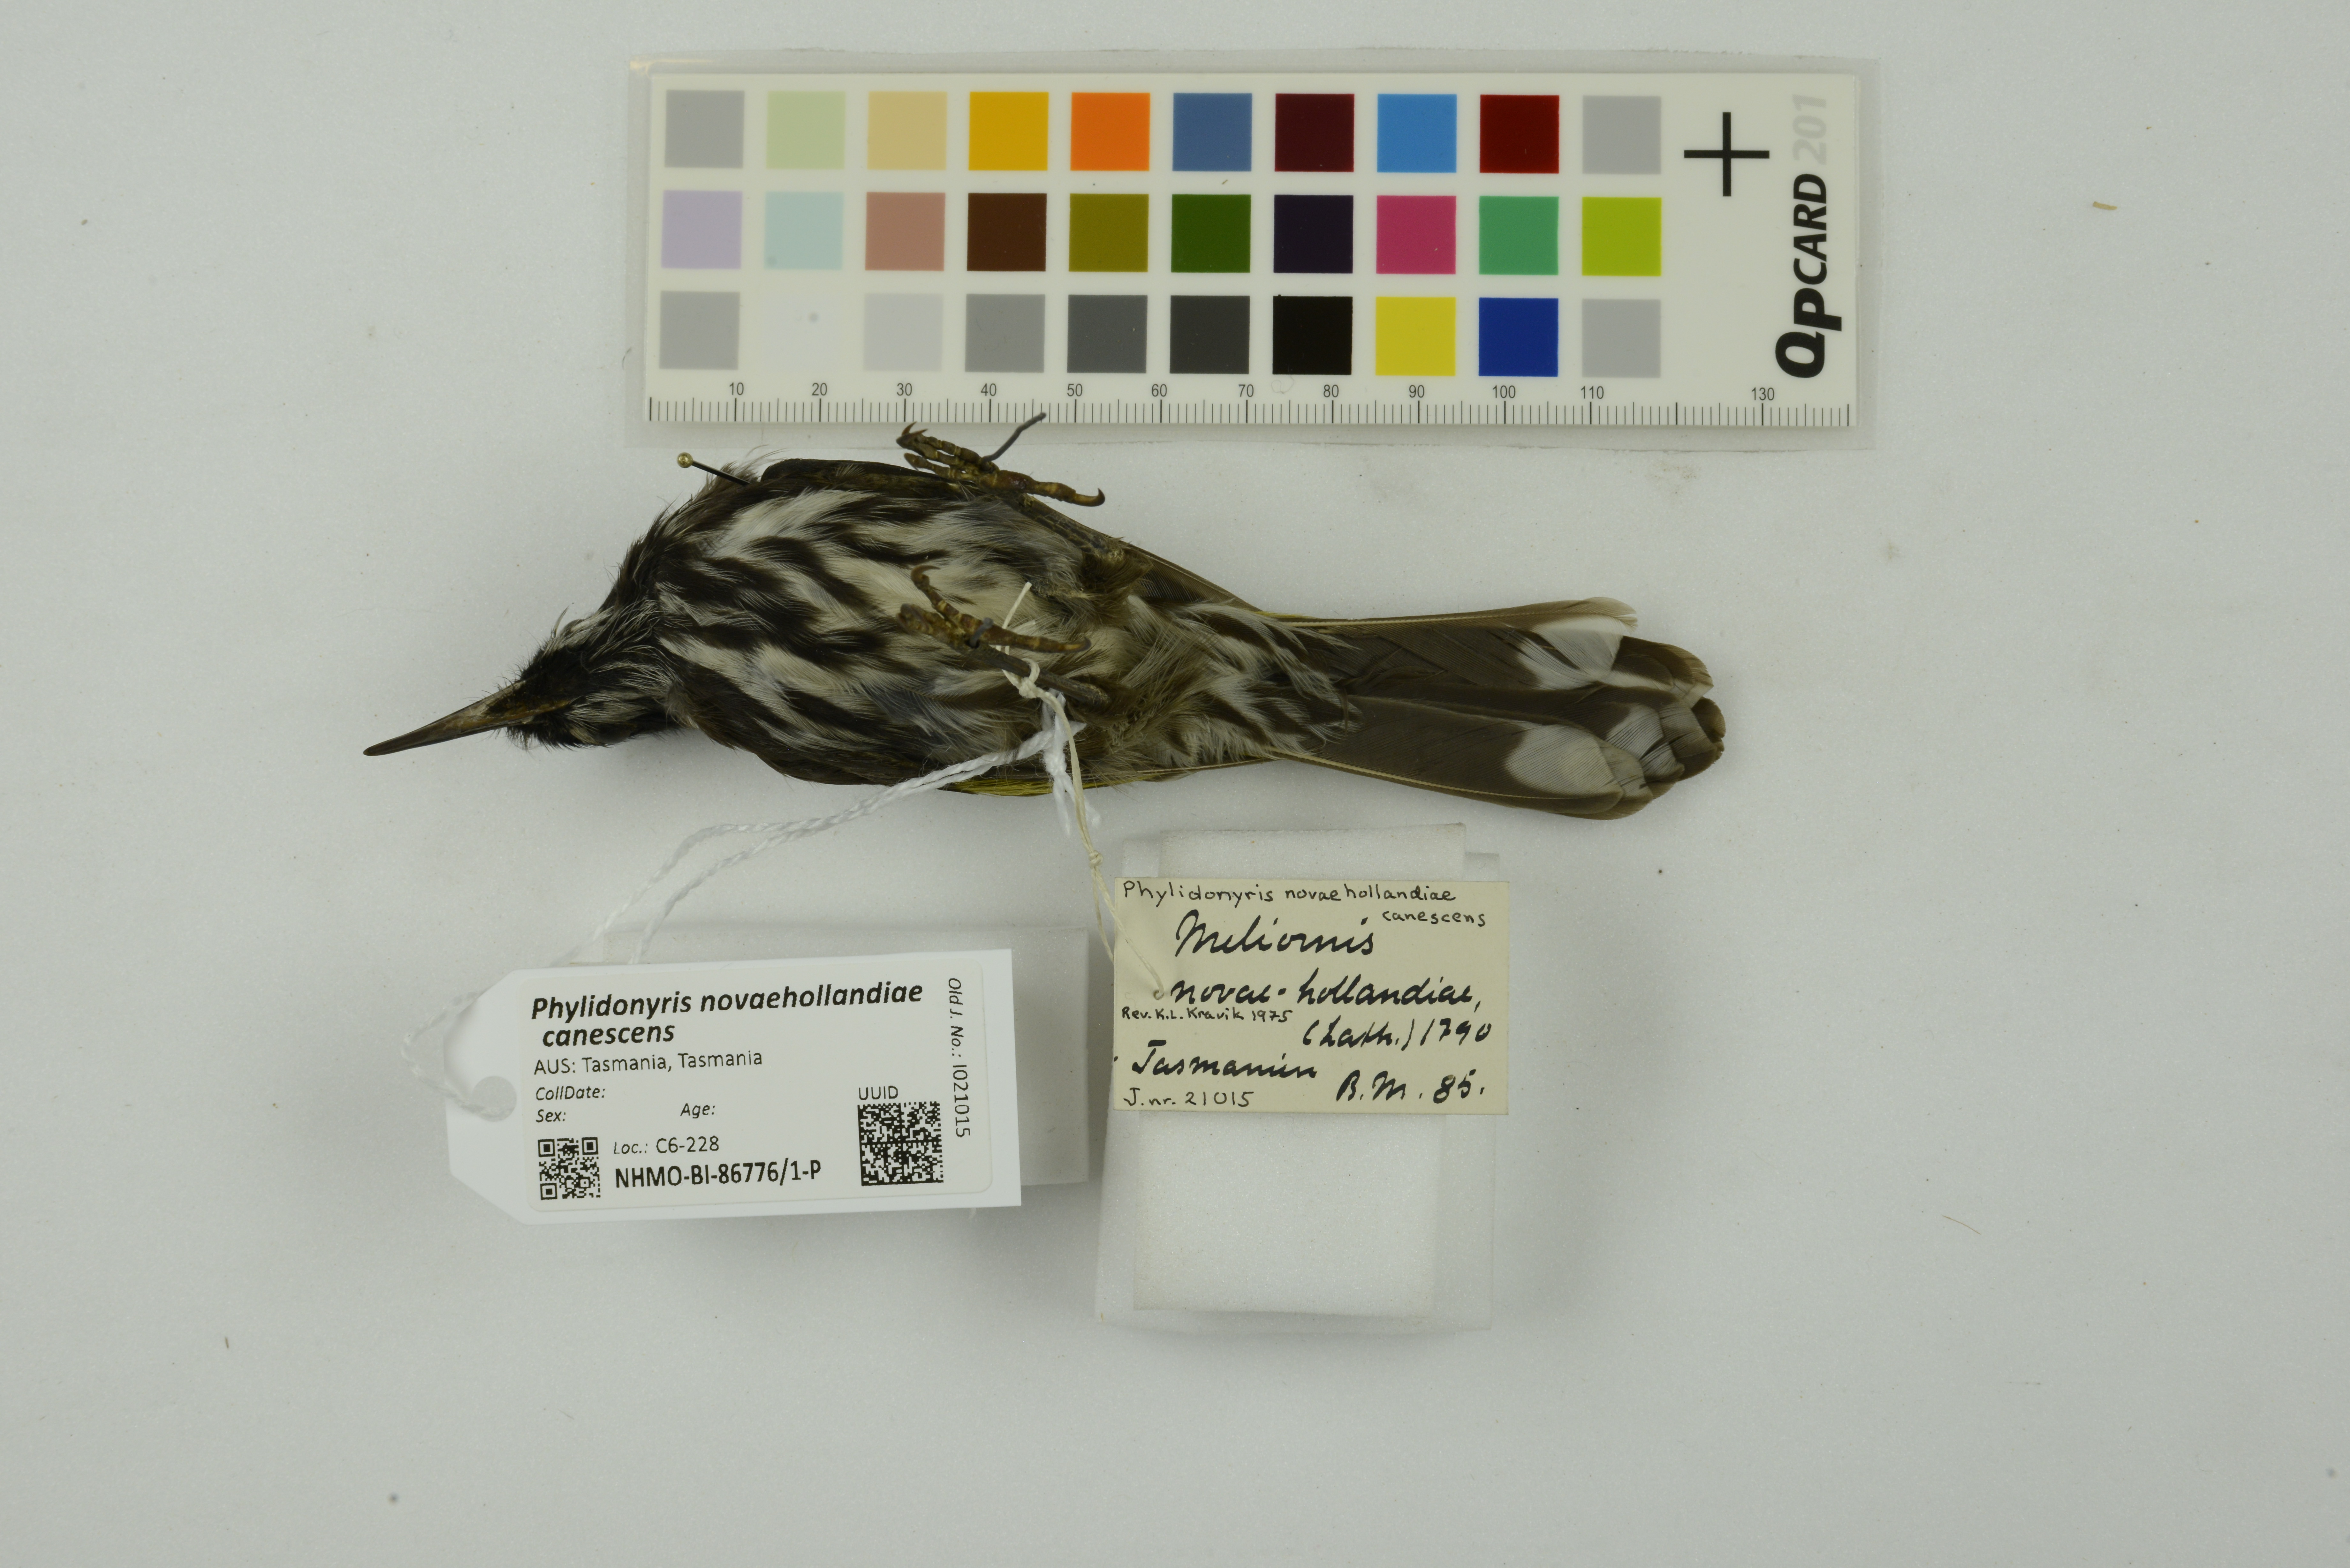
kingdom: Animalia
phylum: Chordata
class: Aves
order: Passeriformes
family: Meliphagidae
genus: Phylidonyris
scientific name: Phylidonyris novaehollandiae
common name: New holland honeyeater
